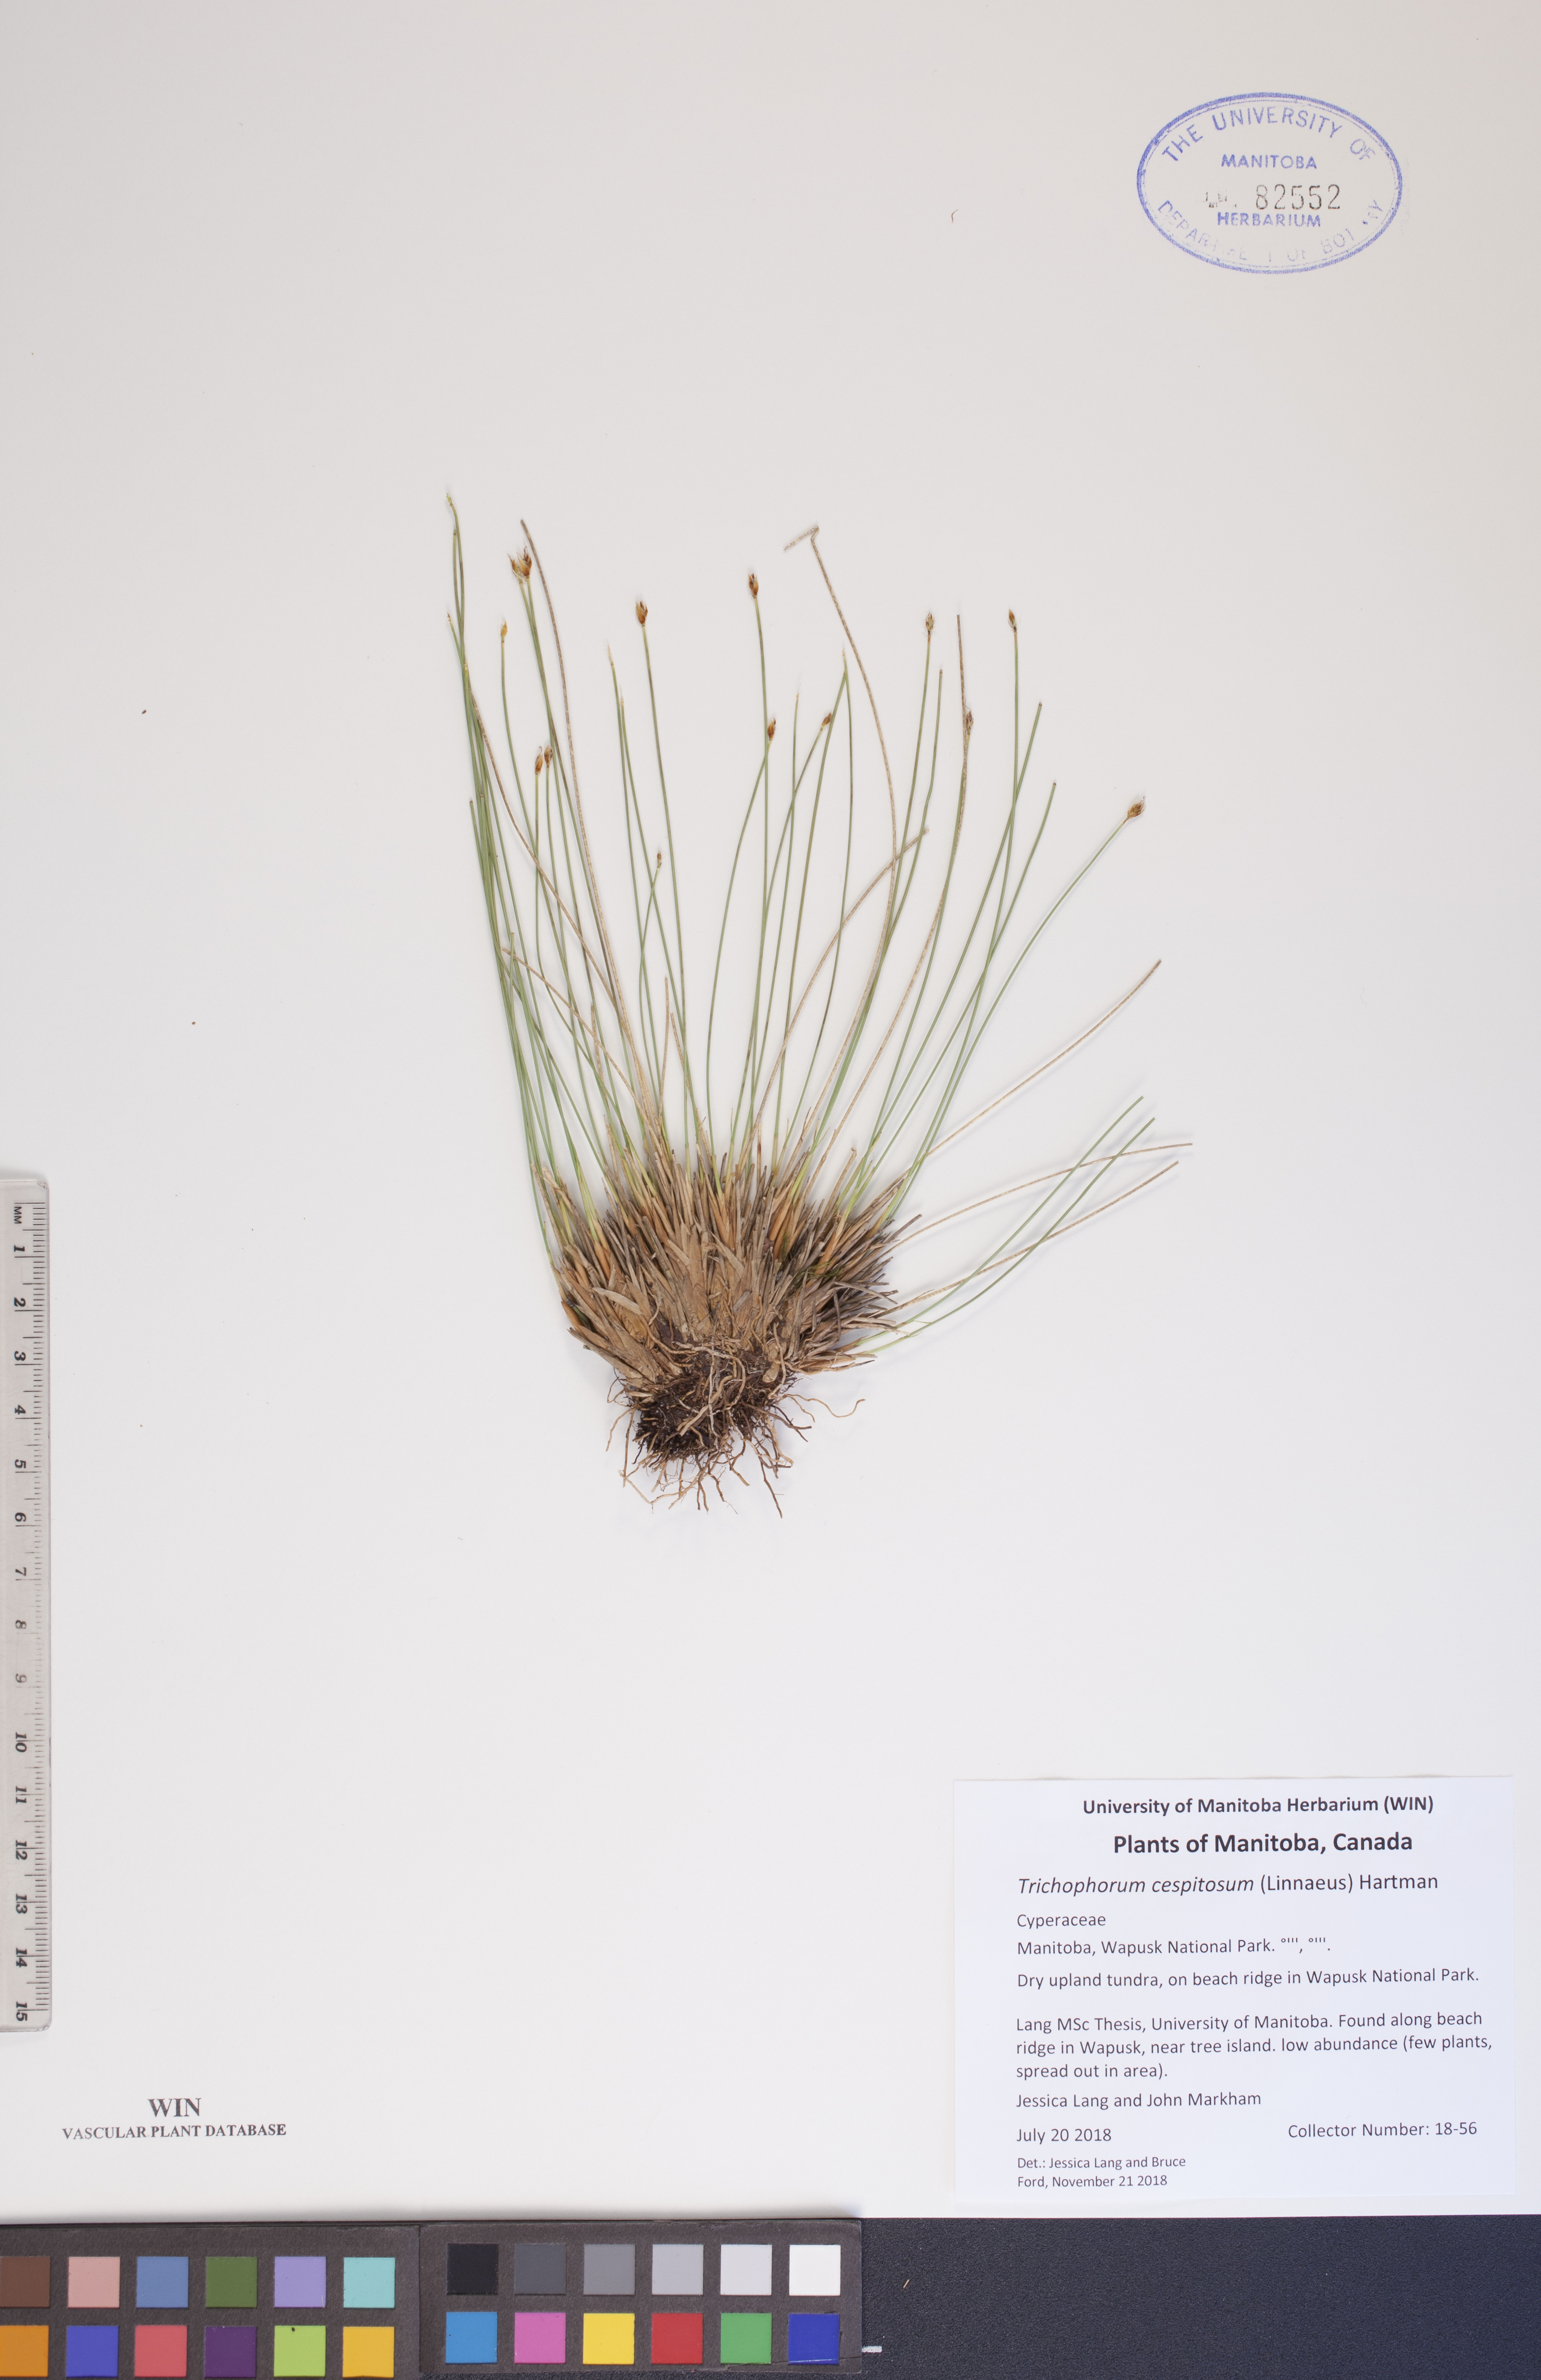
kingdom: Plantae
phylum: Tracheophyta
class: Liliopsida
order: Poales
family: Cyperaceae
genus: Trichophorum
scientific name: Trichophorum cespitosum
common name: Cespitose bulrush
